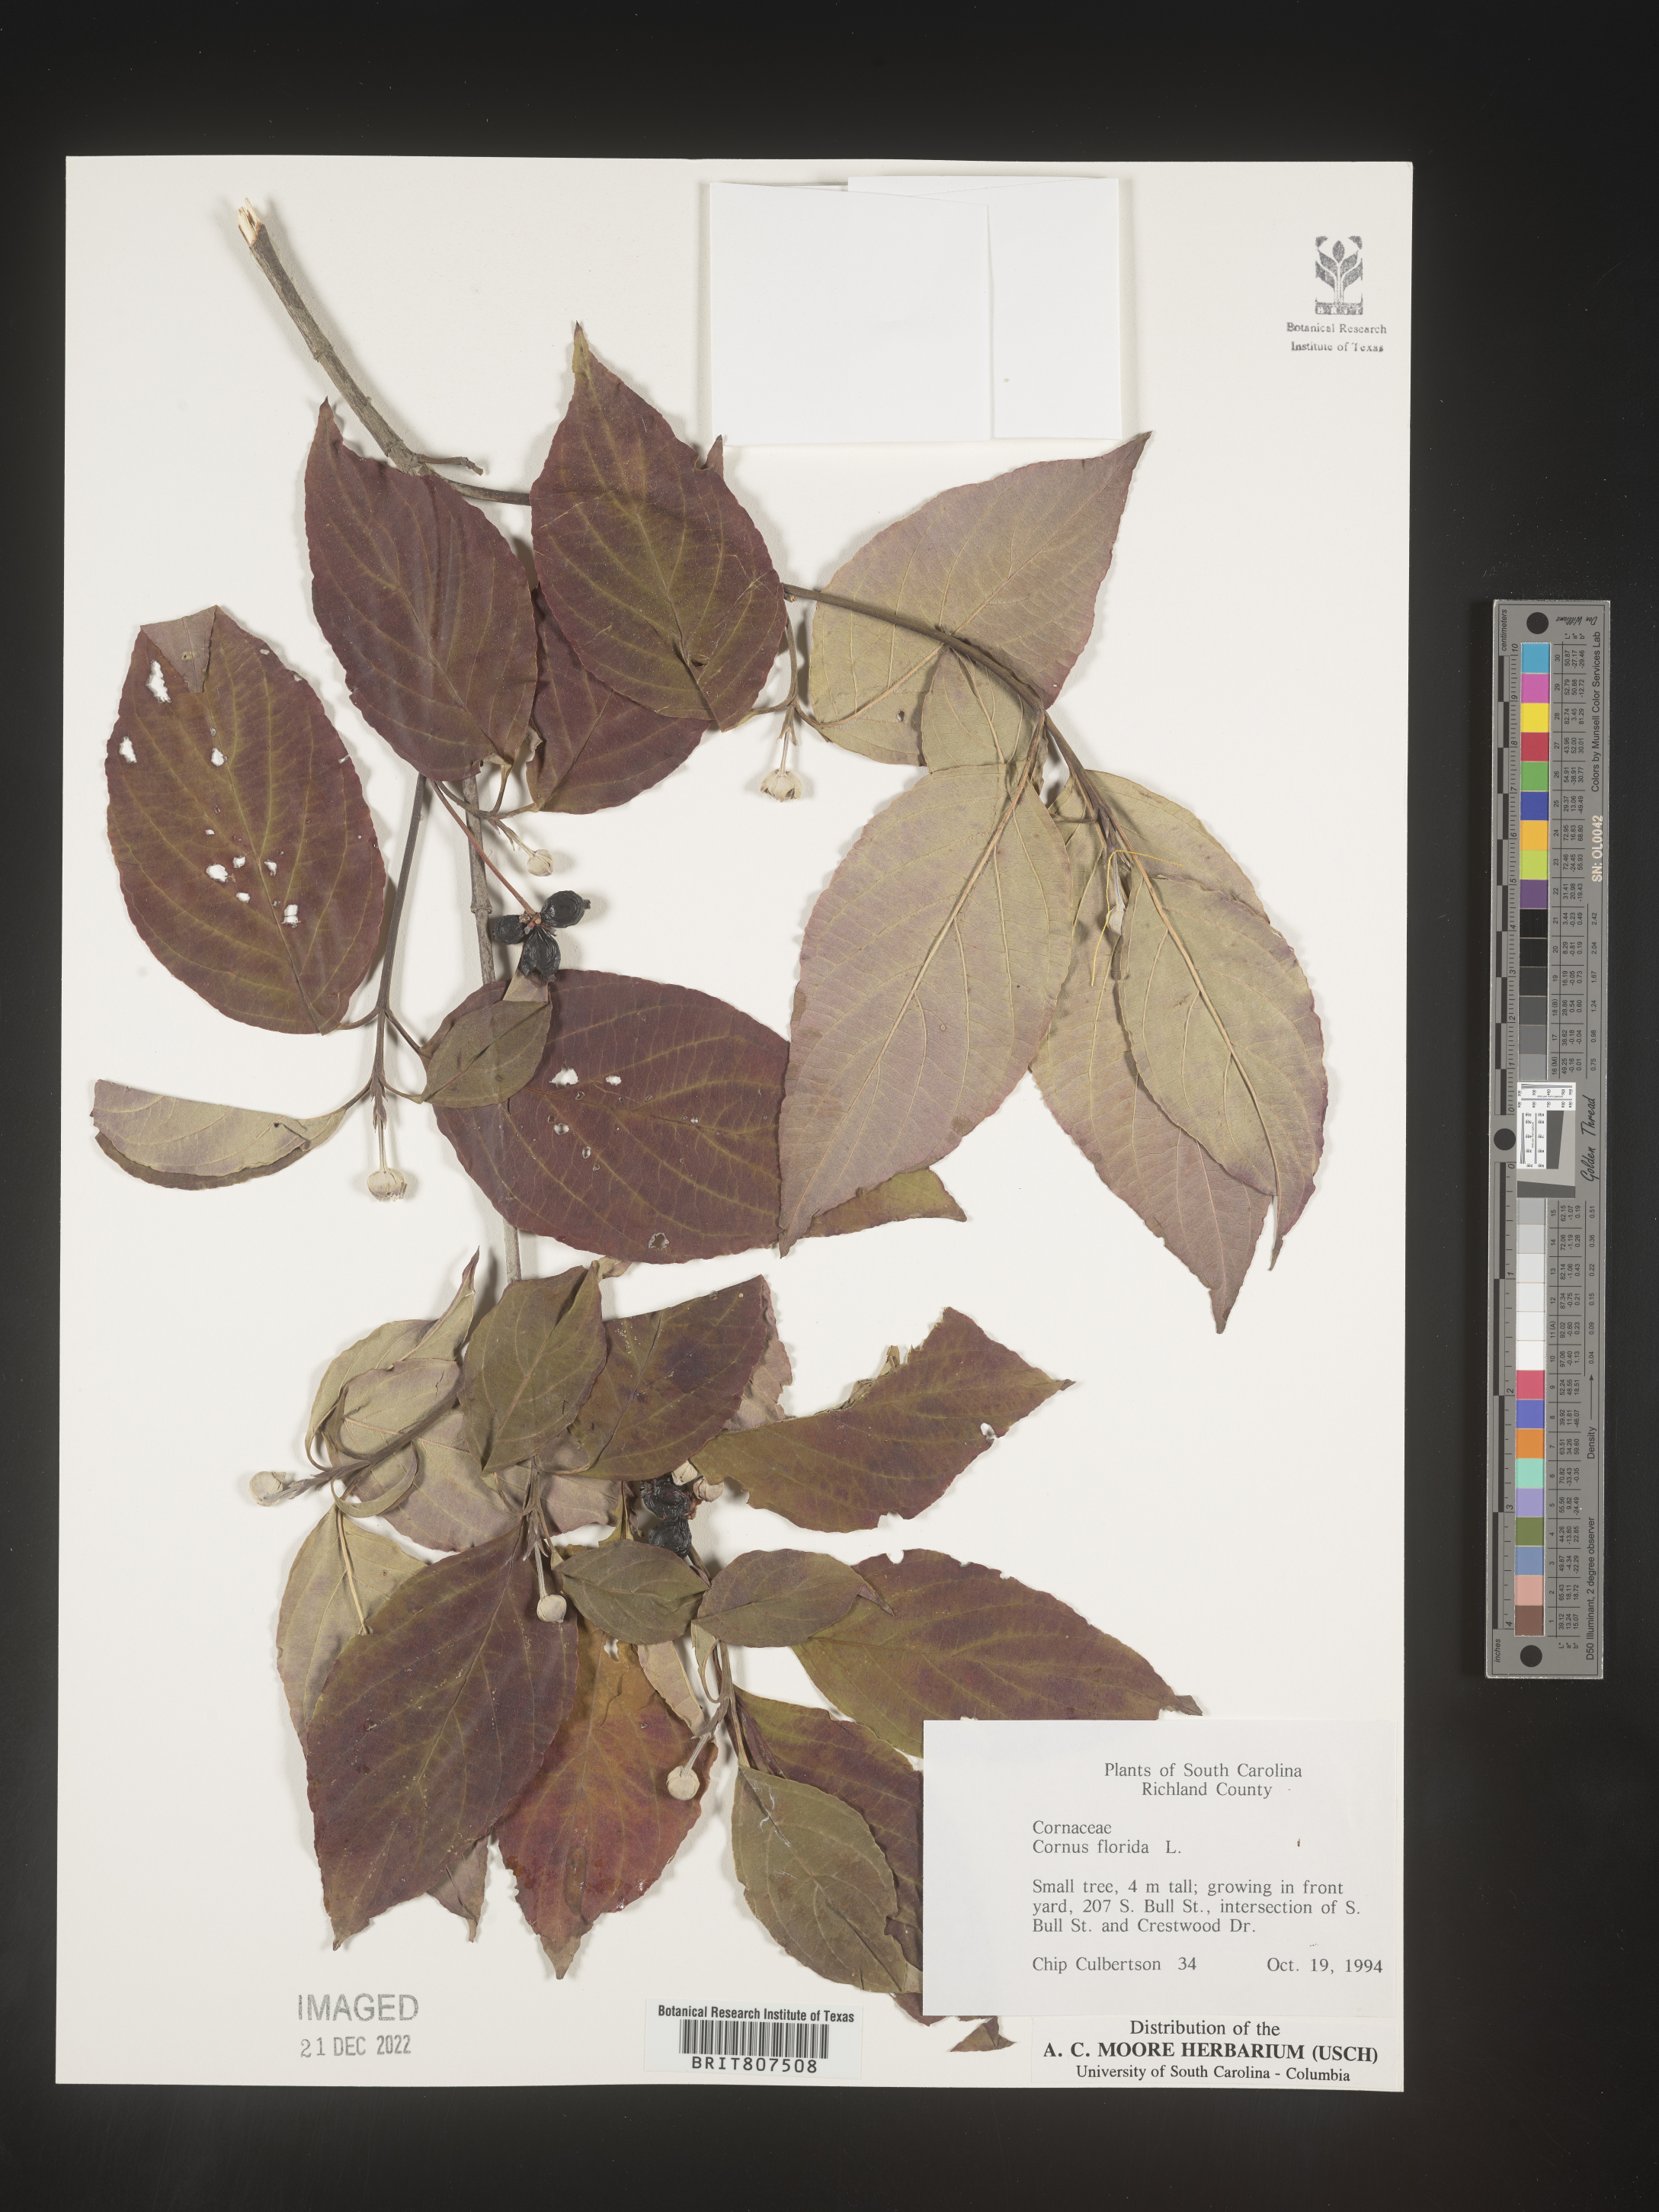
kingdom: Plantae
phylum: Tracheophyta
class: Magnoliopsida
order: Cornales
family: Cornaceae
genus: Cornus
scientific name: Cornus florida
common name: Flowering dogwood
